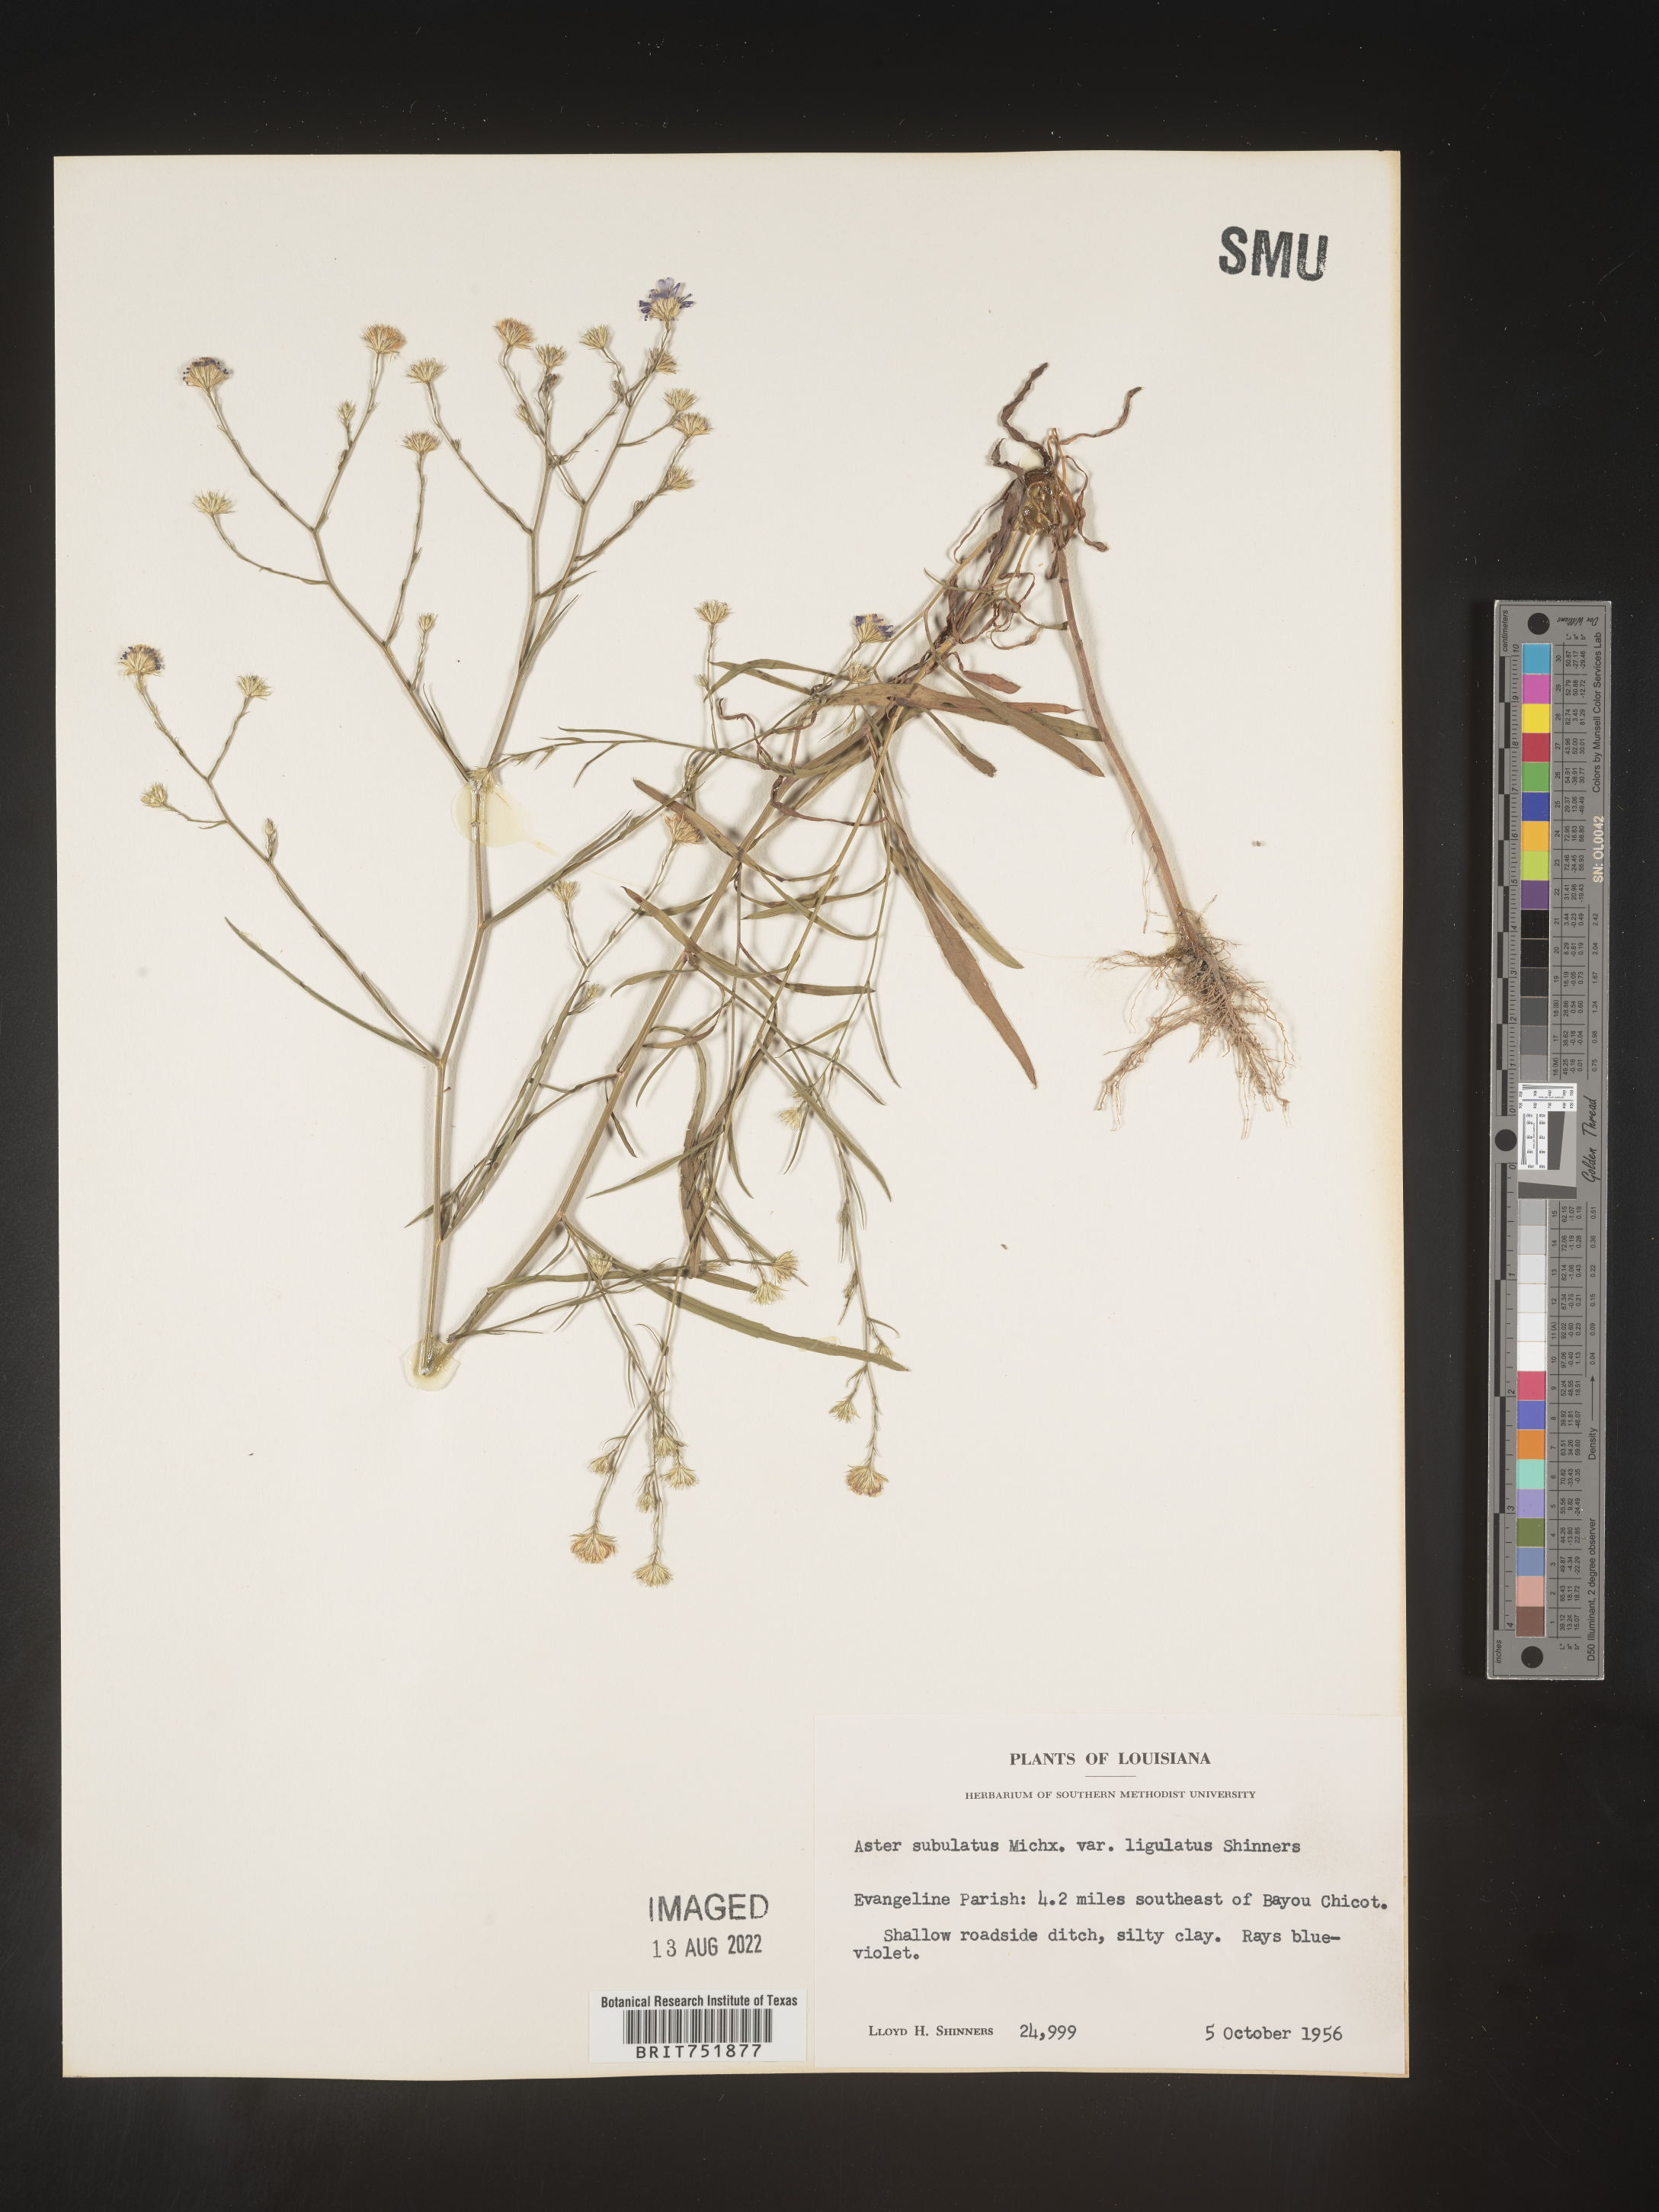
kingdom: Plantae
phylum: Tracheophyta
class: Magnoliopsida
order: Asterales
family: Asteraceae
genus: Symphyotrichum
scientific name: Symphyotrichum divaricatum
